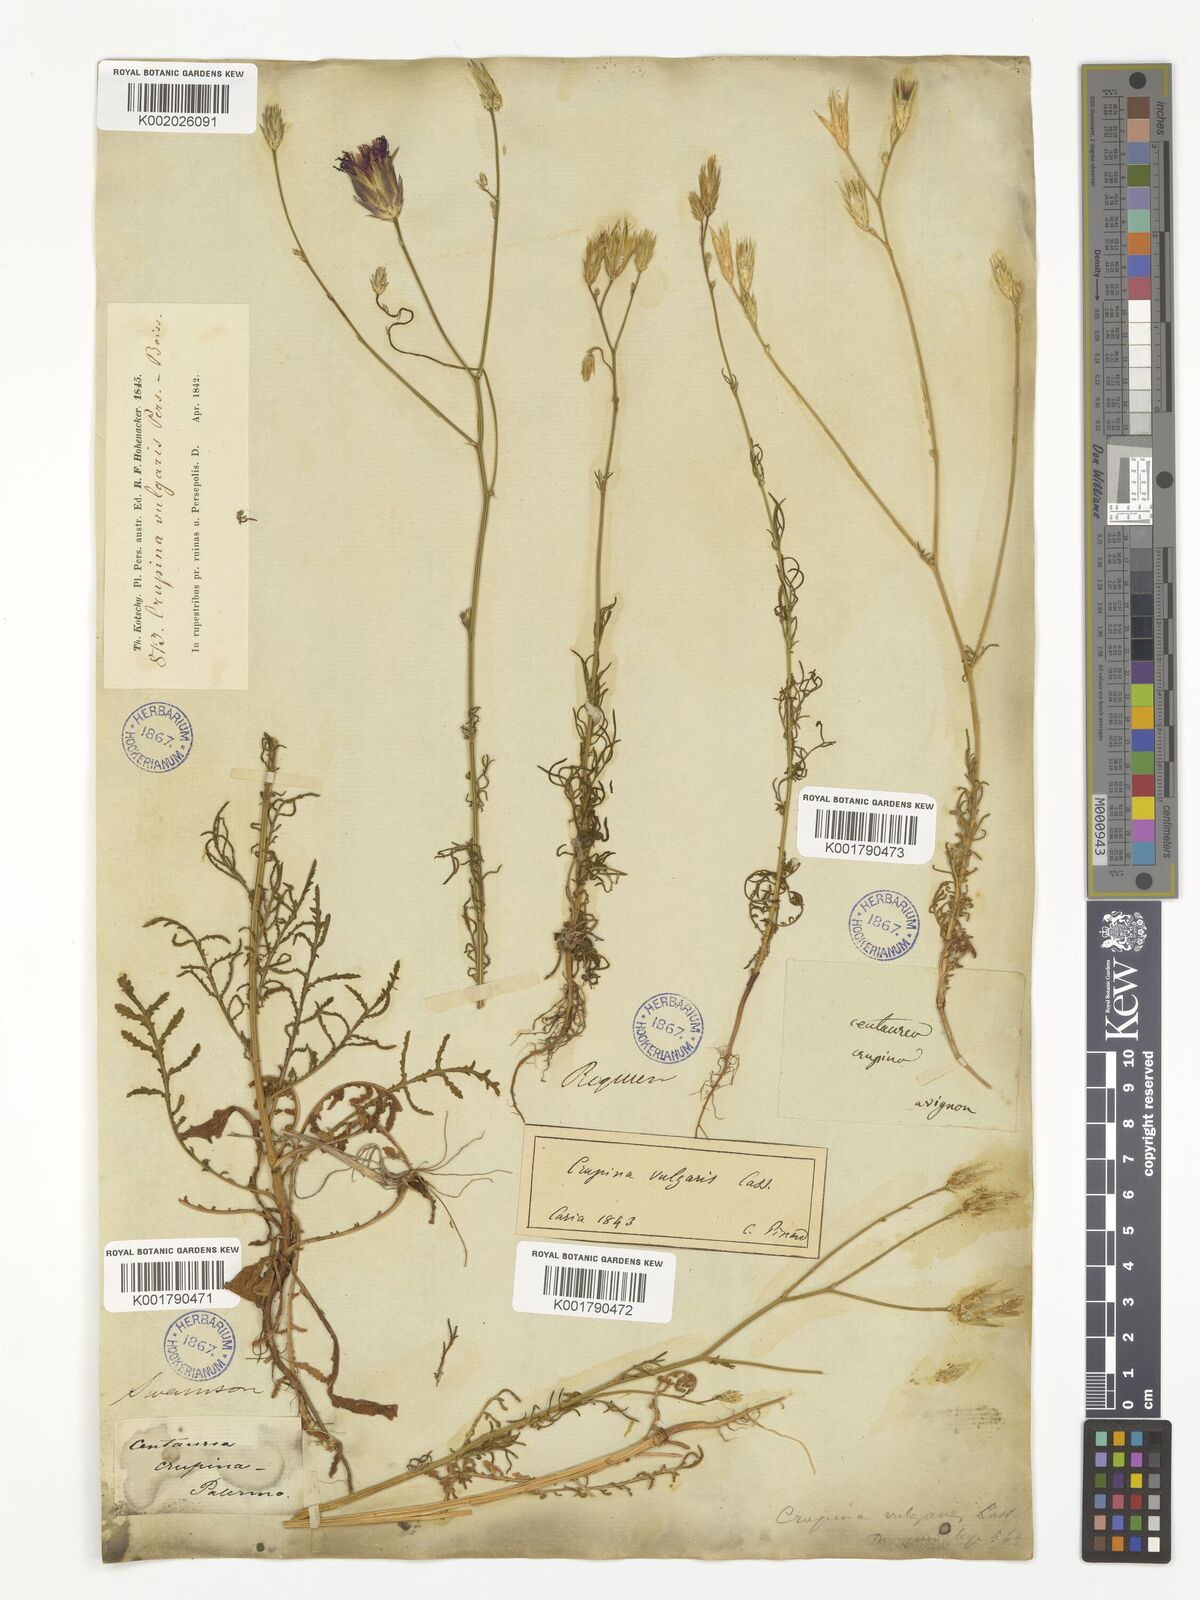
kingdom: Plantae
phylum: Tracheophyta
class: Magnoliopsida
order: Asterales
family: Asteraceae
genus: Crupina
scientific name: Crupina vulgaris
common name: Common crupina
